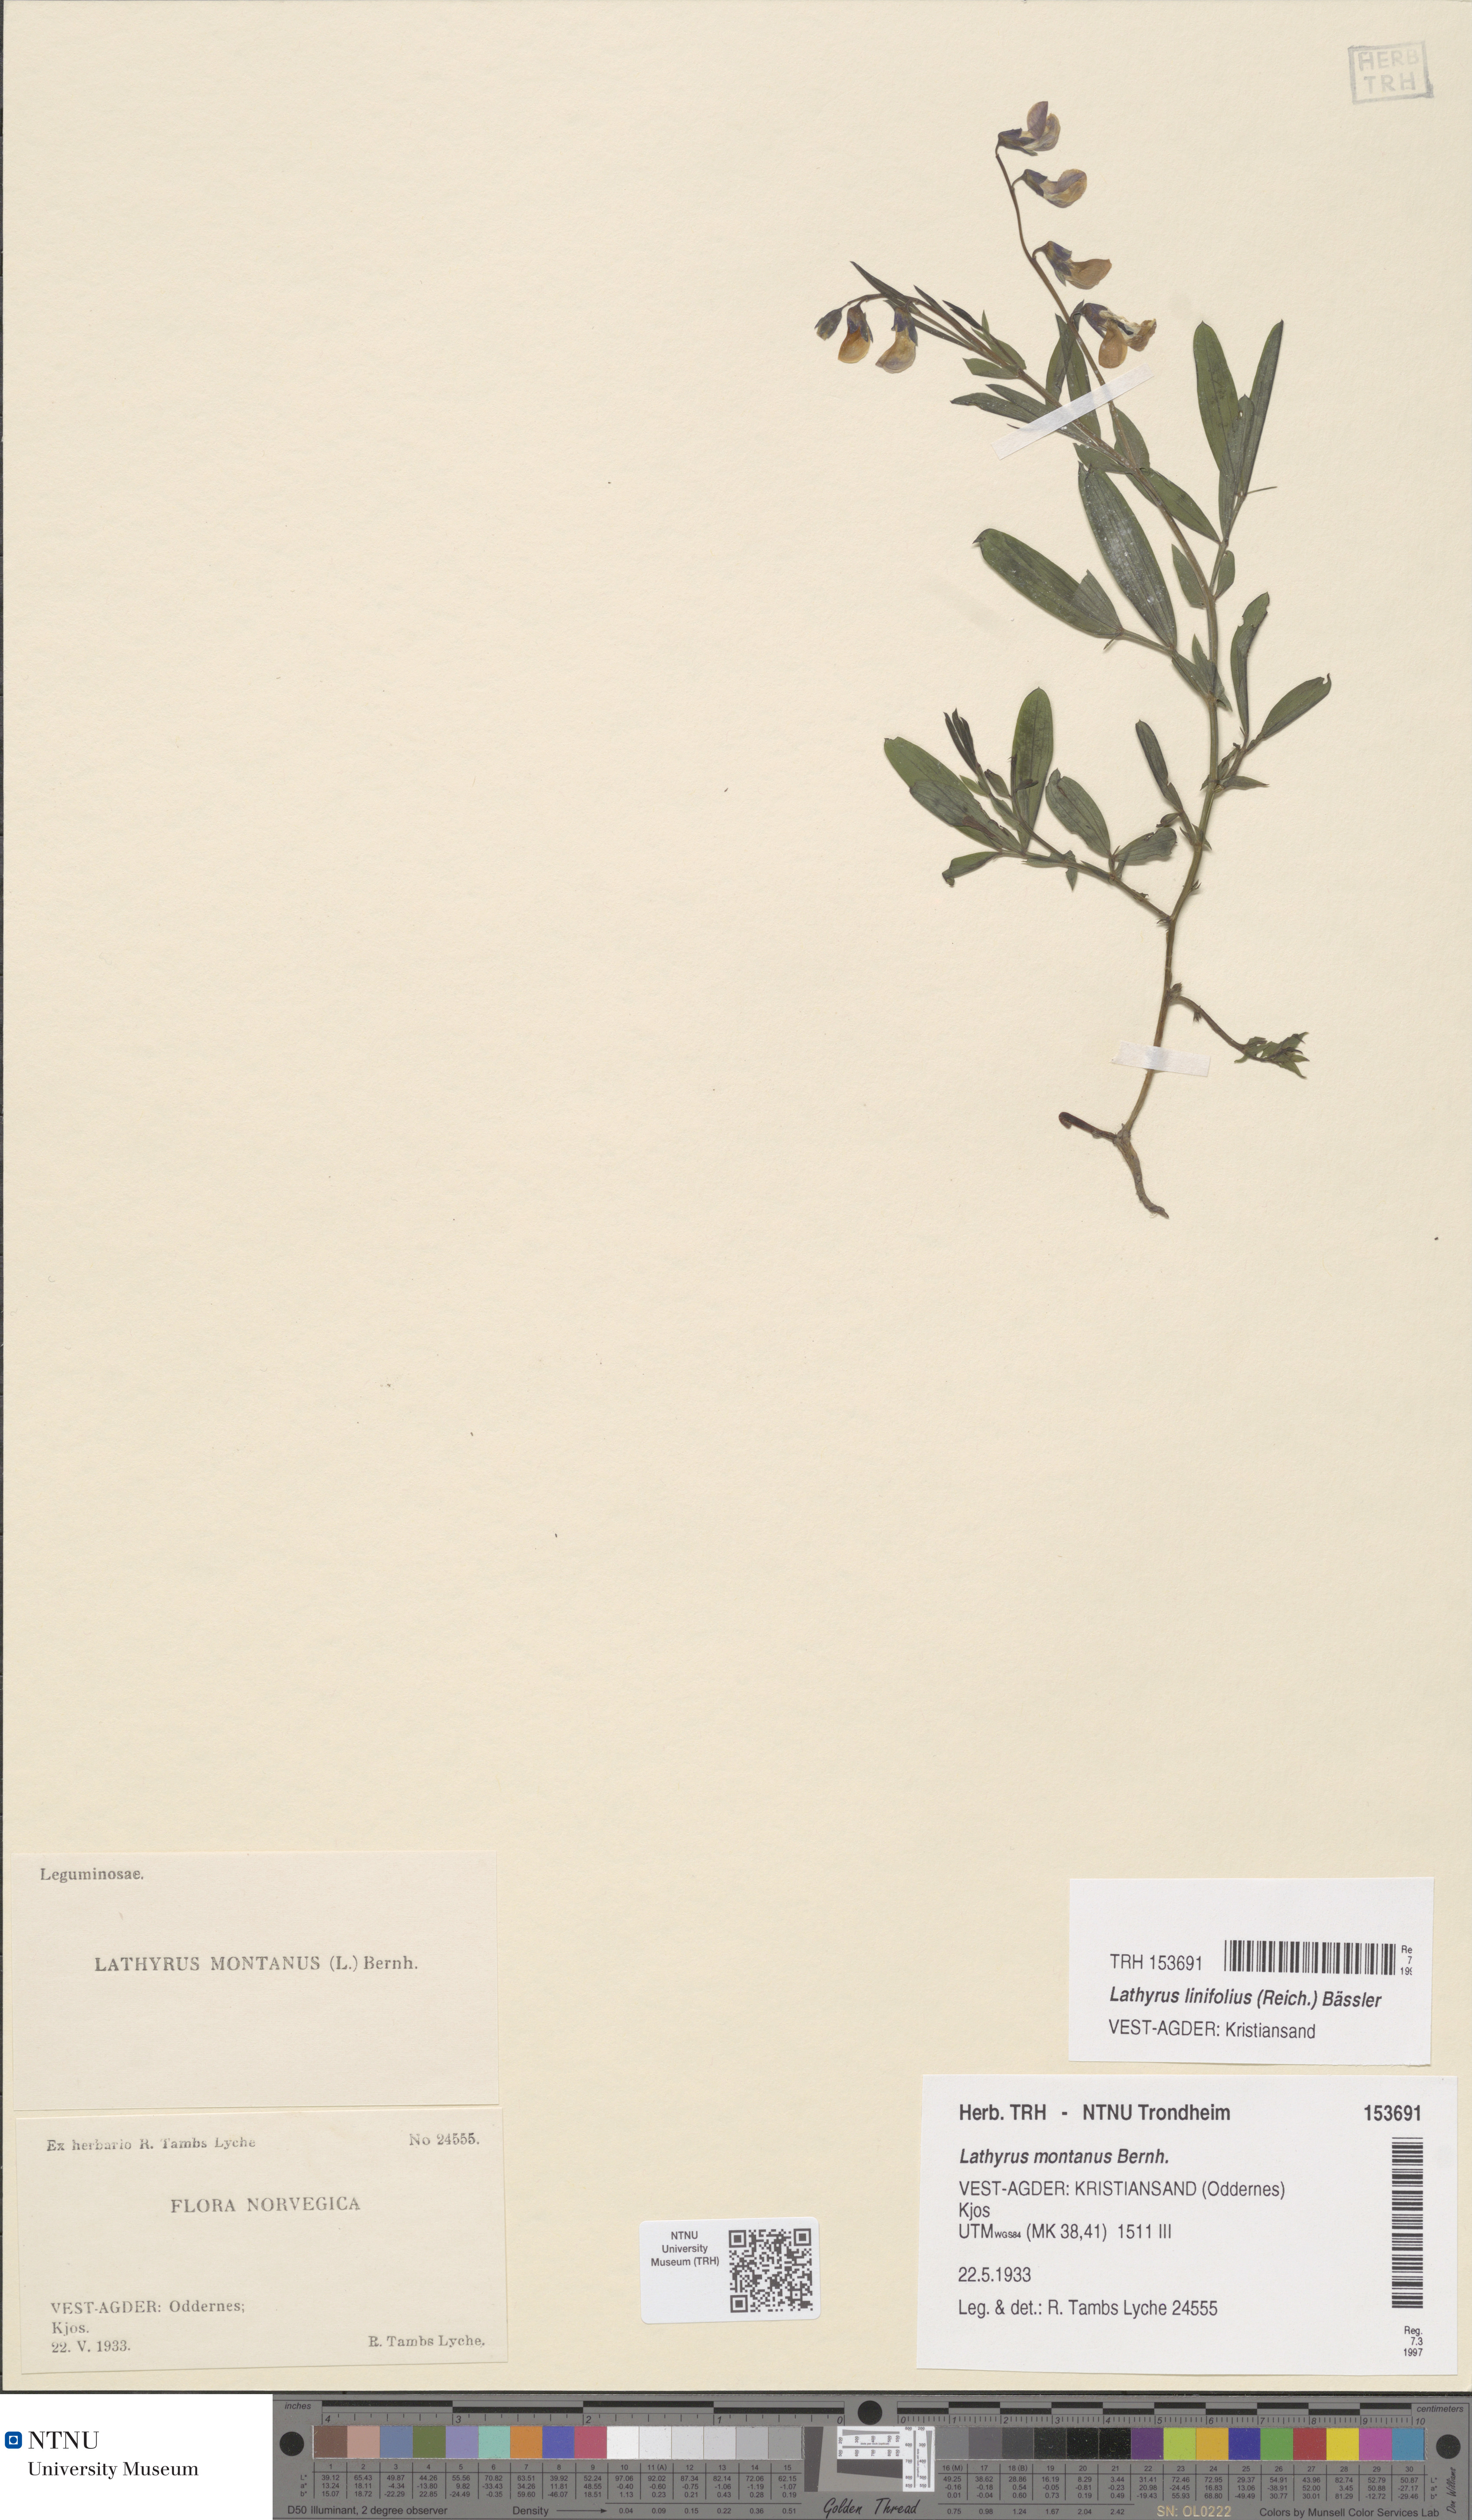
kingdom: Plantae
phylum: Tracheophyta
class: Magnoliopsida
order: Fabales
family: Fabaceae
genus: Lathyrus
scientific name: Lathyrus linifolius
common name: Bitter-vetch
